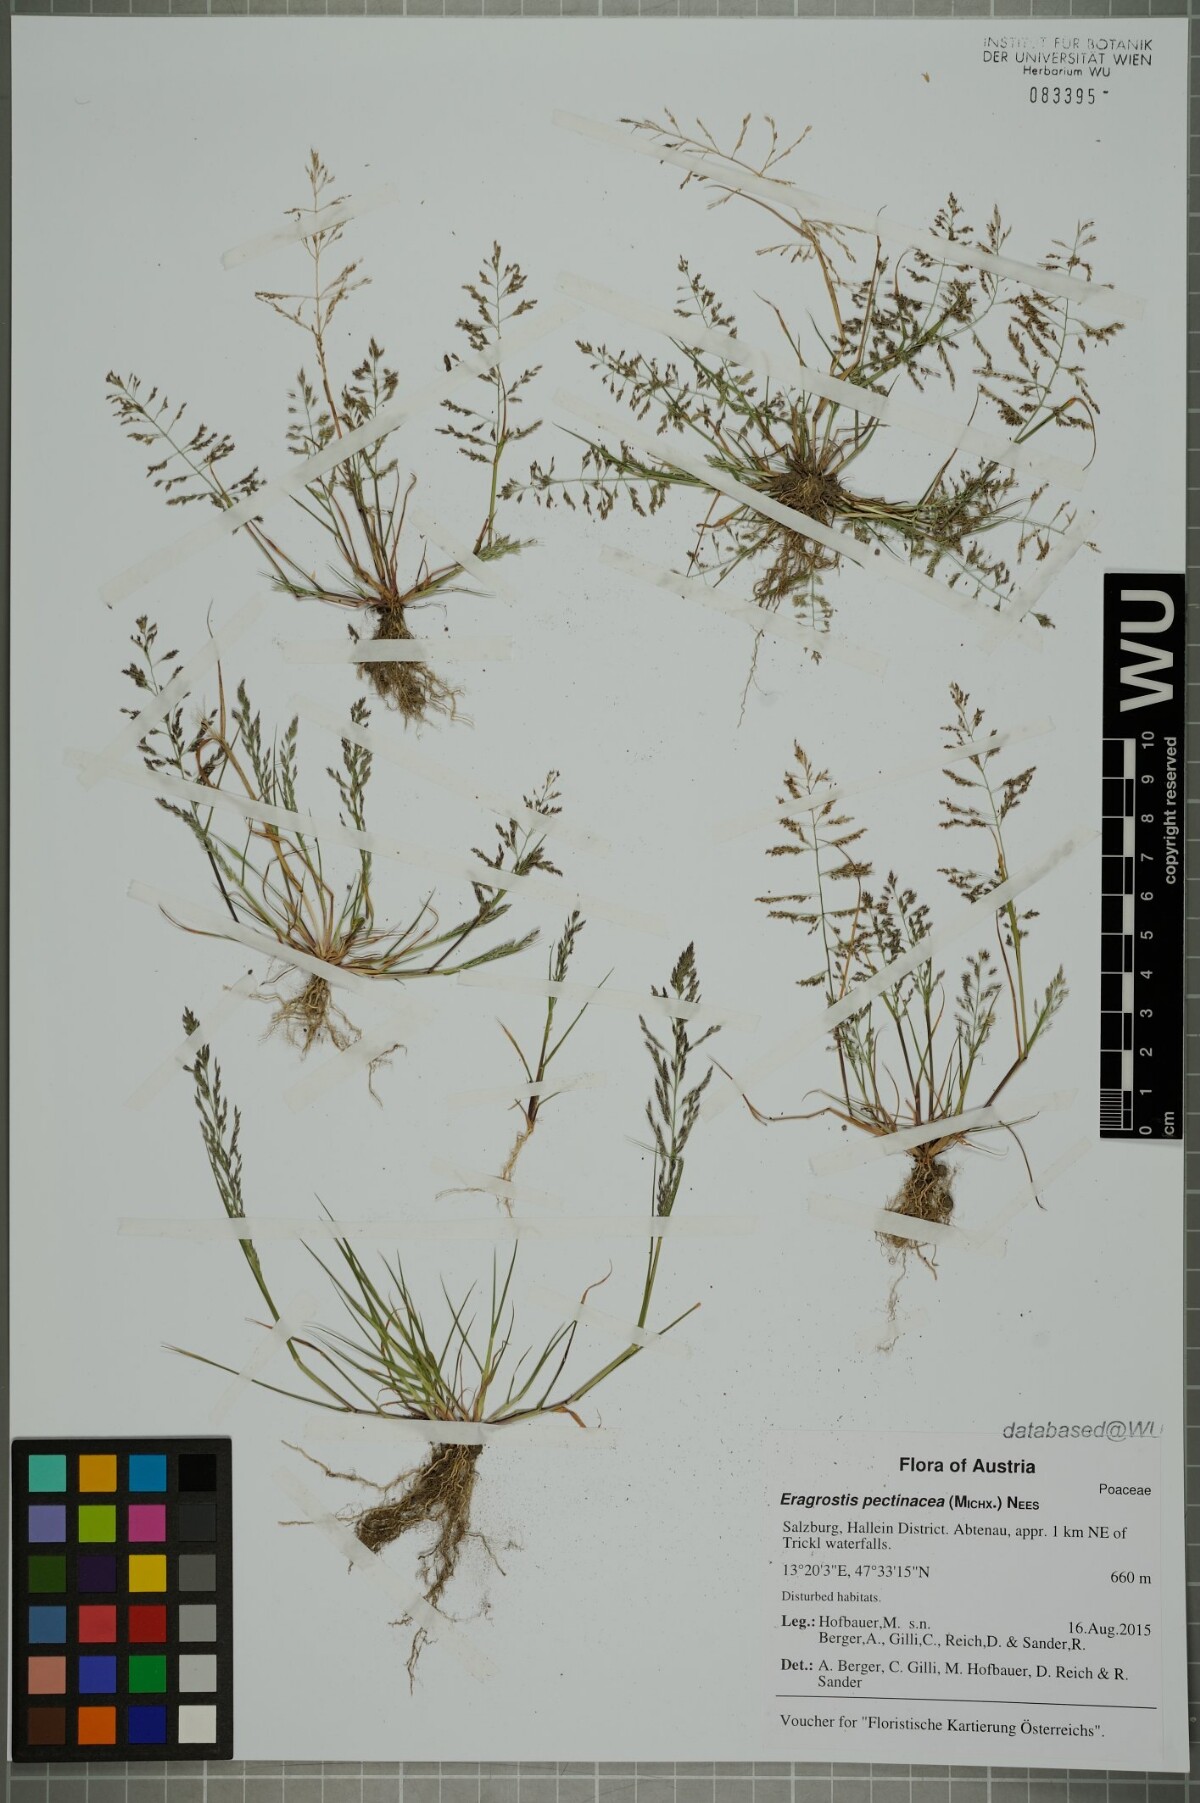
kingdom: Plantae
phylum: Tracheophyta
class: Liliopsida
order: Poales
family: Poaceae
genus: Eragrostis
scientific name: Eragrostis multicaulis
